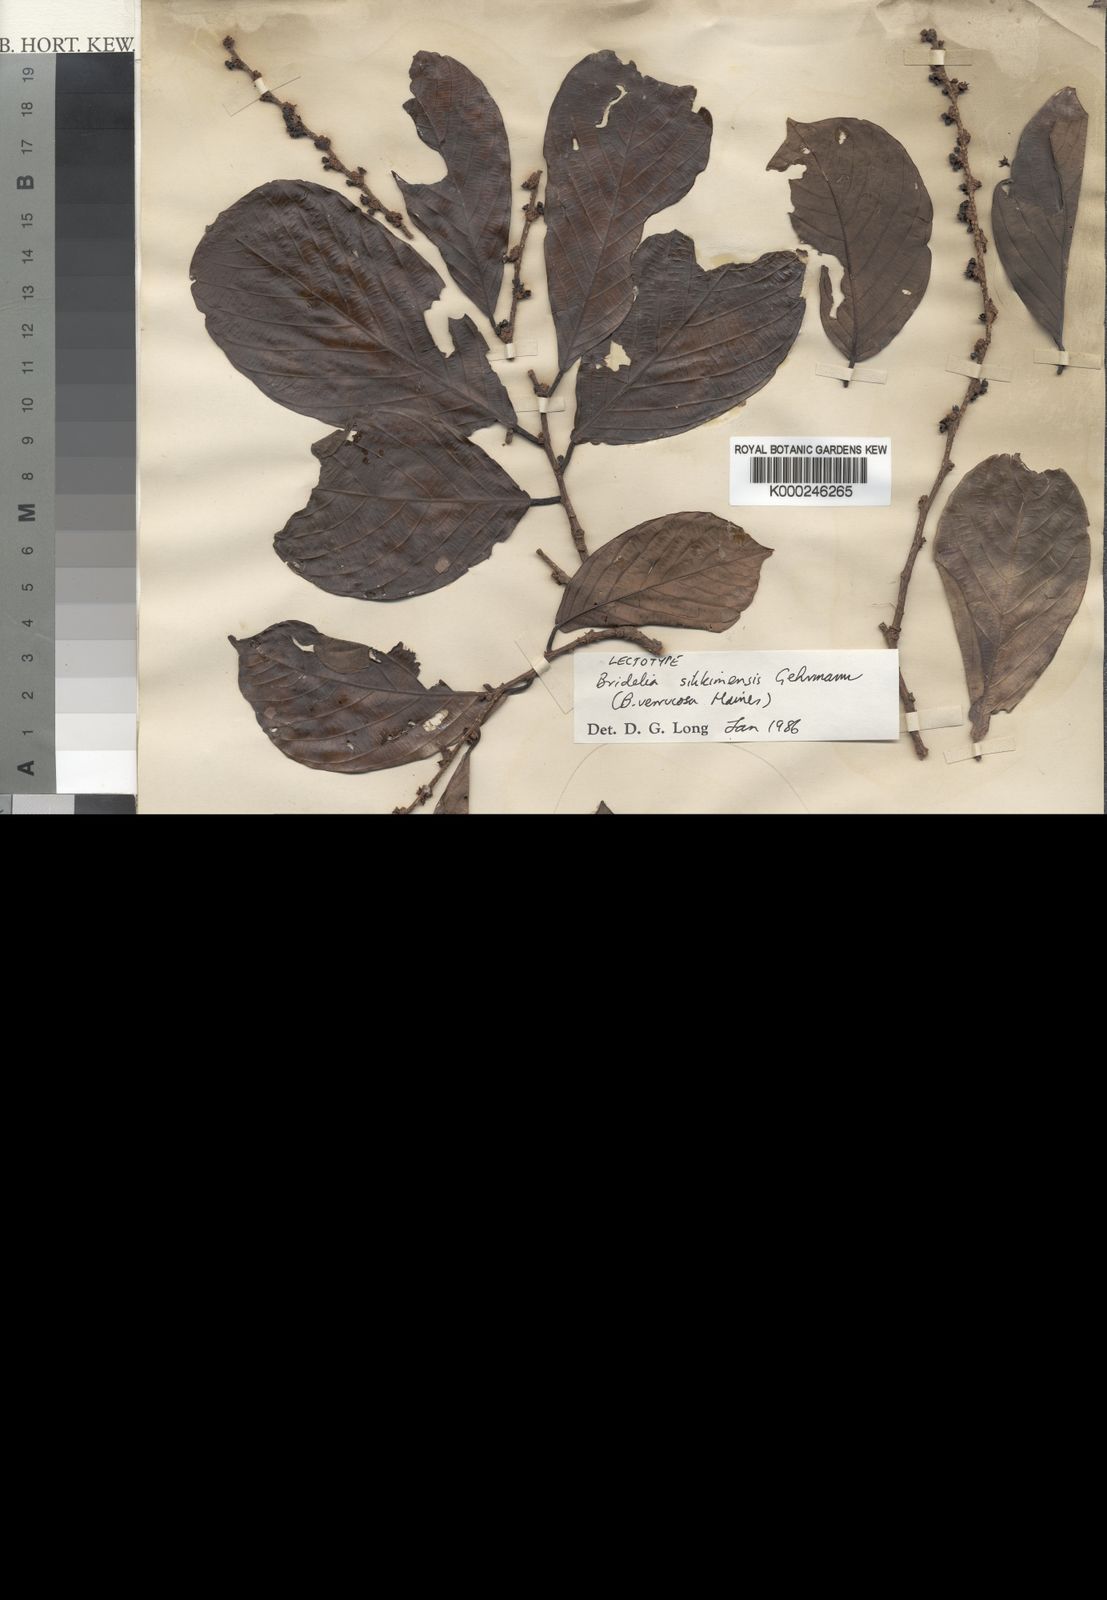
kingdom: Plantae
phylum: Tracheophyta
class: Magnoliopsida
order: Malpighiales
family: Phyllanthaceae
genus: Bridelia
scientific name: Bridelia sikkimensis
